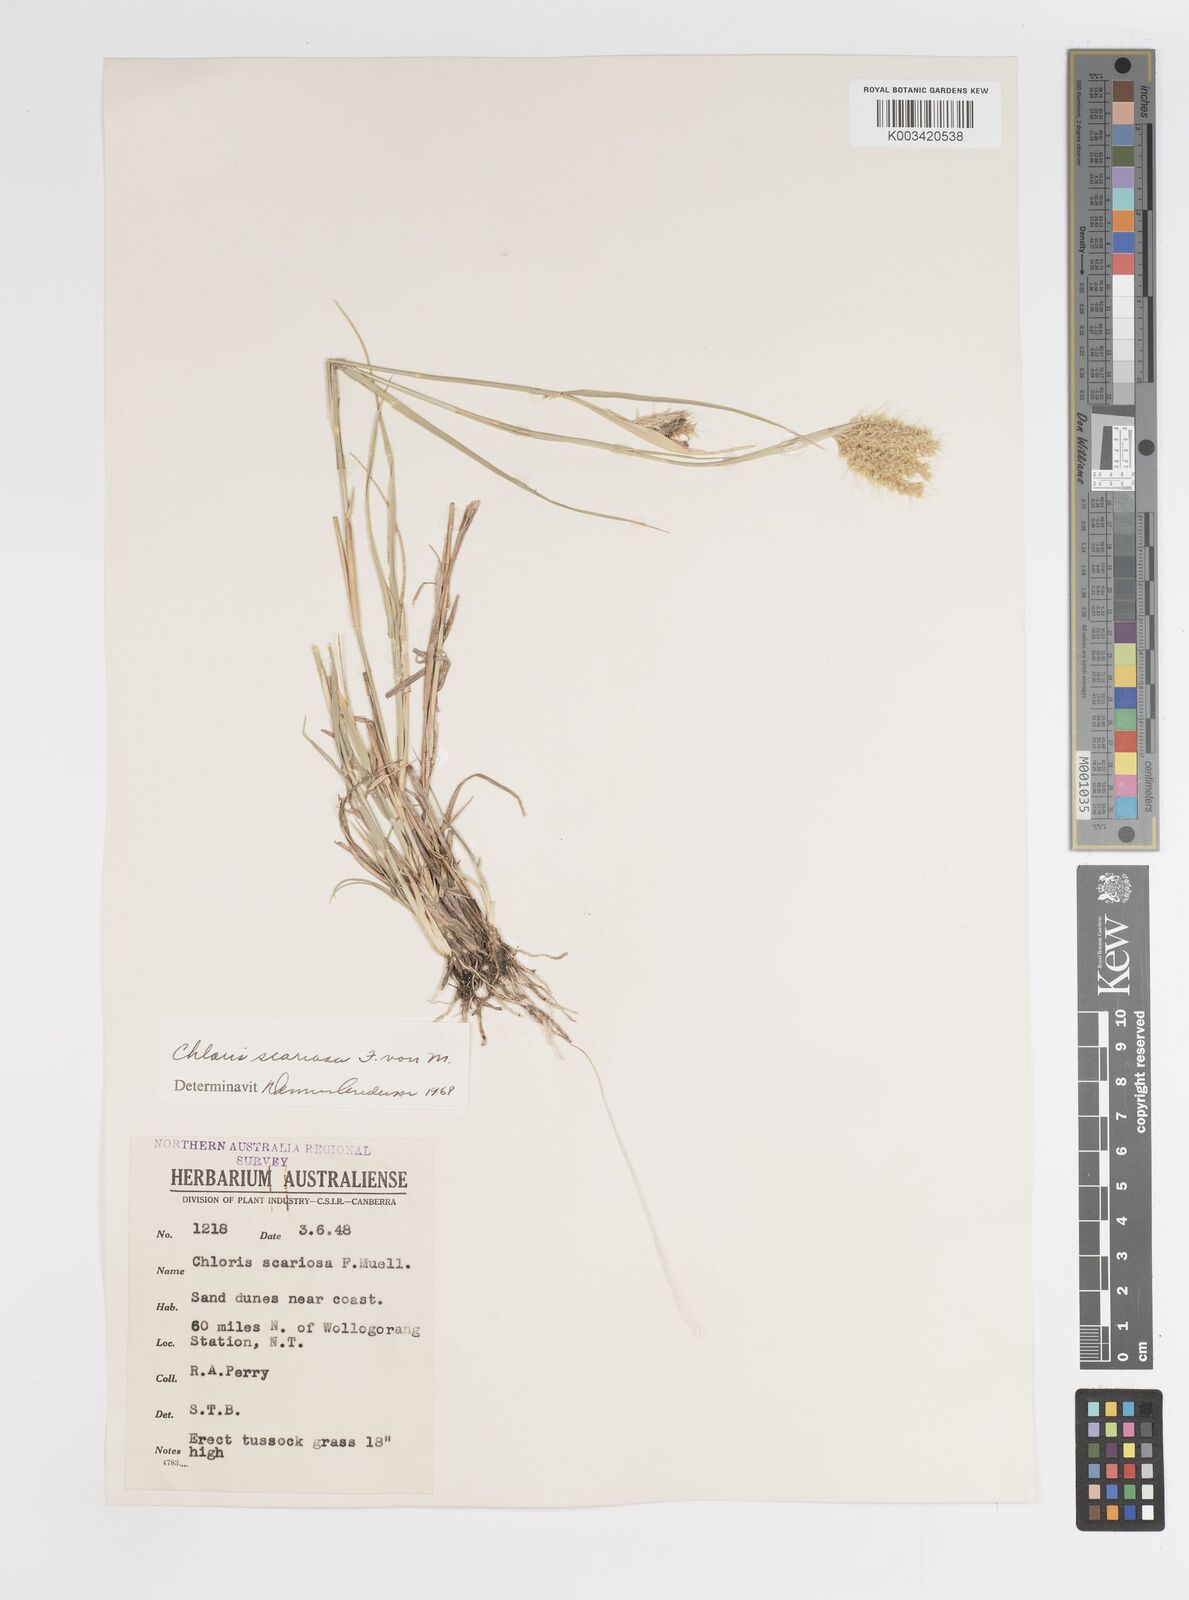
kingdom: Plantae
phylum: Tracheophyta
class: Liliopsida
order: Poales
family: Poaceae
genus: Oxychloris
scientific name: Oxychloris scariosa
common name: Winged windmill grass
